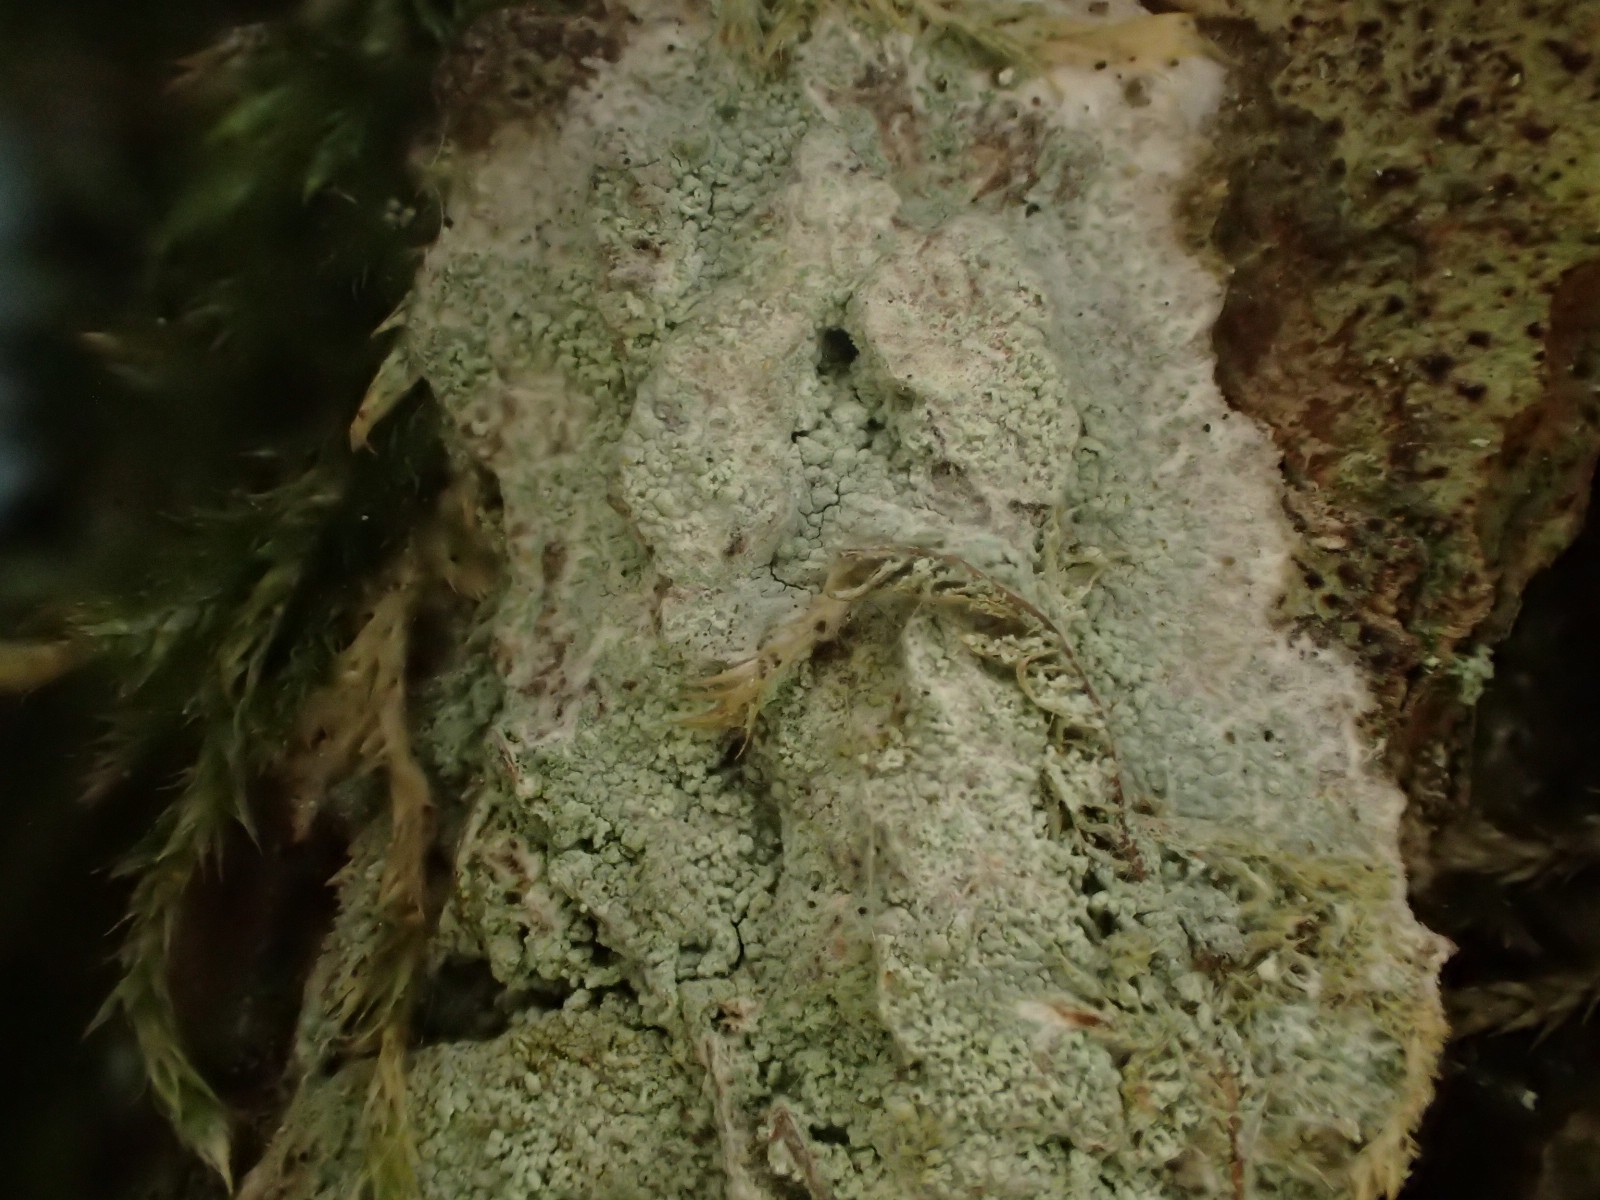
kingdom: Fungi
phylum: Ascomycota
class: Lecanoromycetes
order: Pertusariales
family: Pertusariaceae
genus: Pertusaria
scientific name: Pertusaria hymenea
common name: åben prikvortelav
